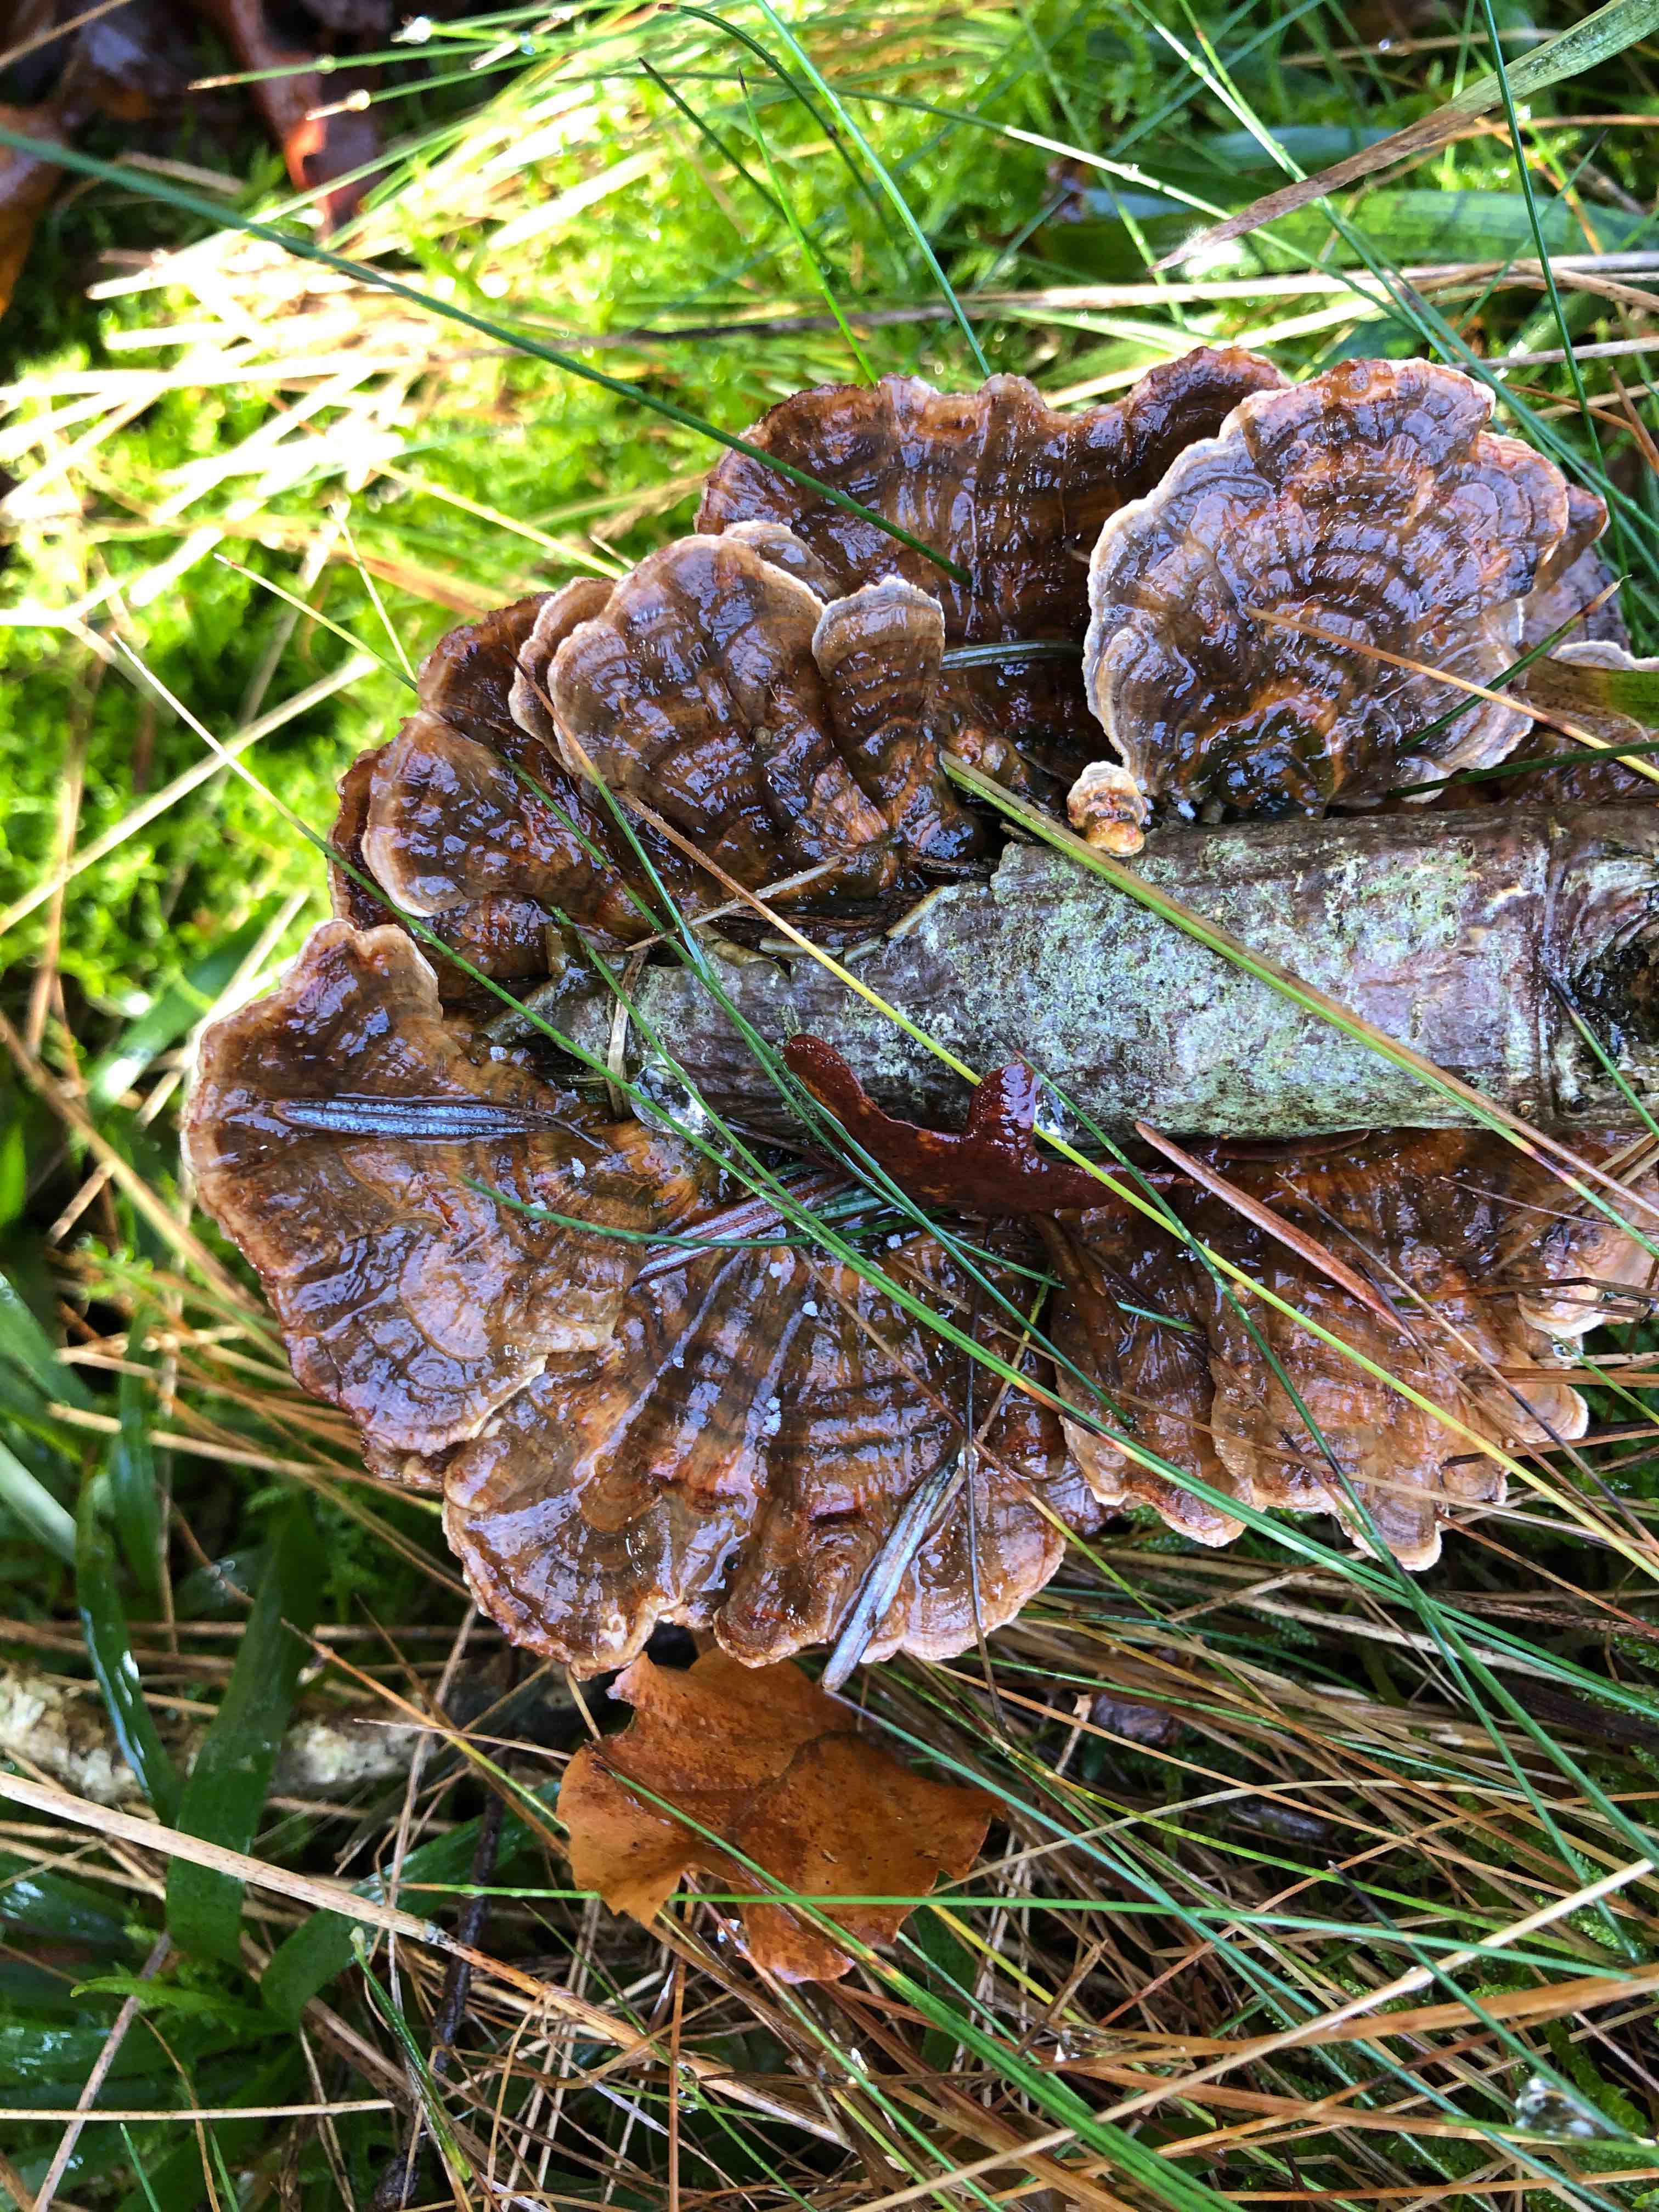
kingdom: Fungi
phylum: Basidiomycota
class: Agaricomycetes
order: Polyporales
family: Polyporaceae
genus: Trametes
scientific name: Trametes versicolor
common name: broget læderporesvamp
